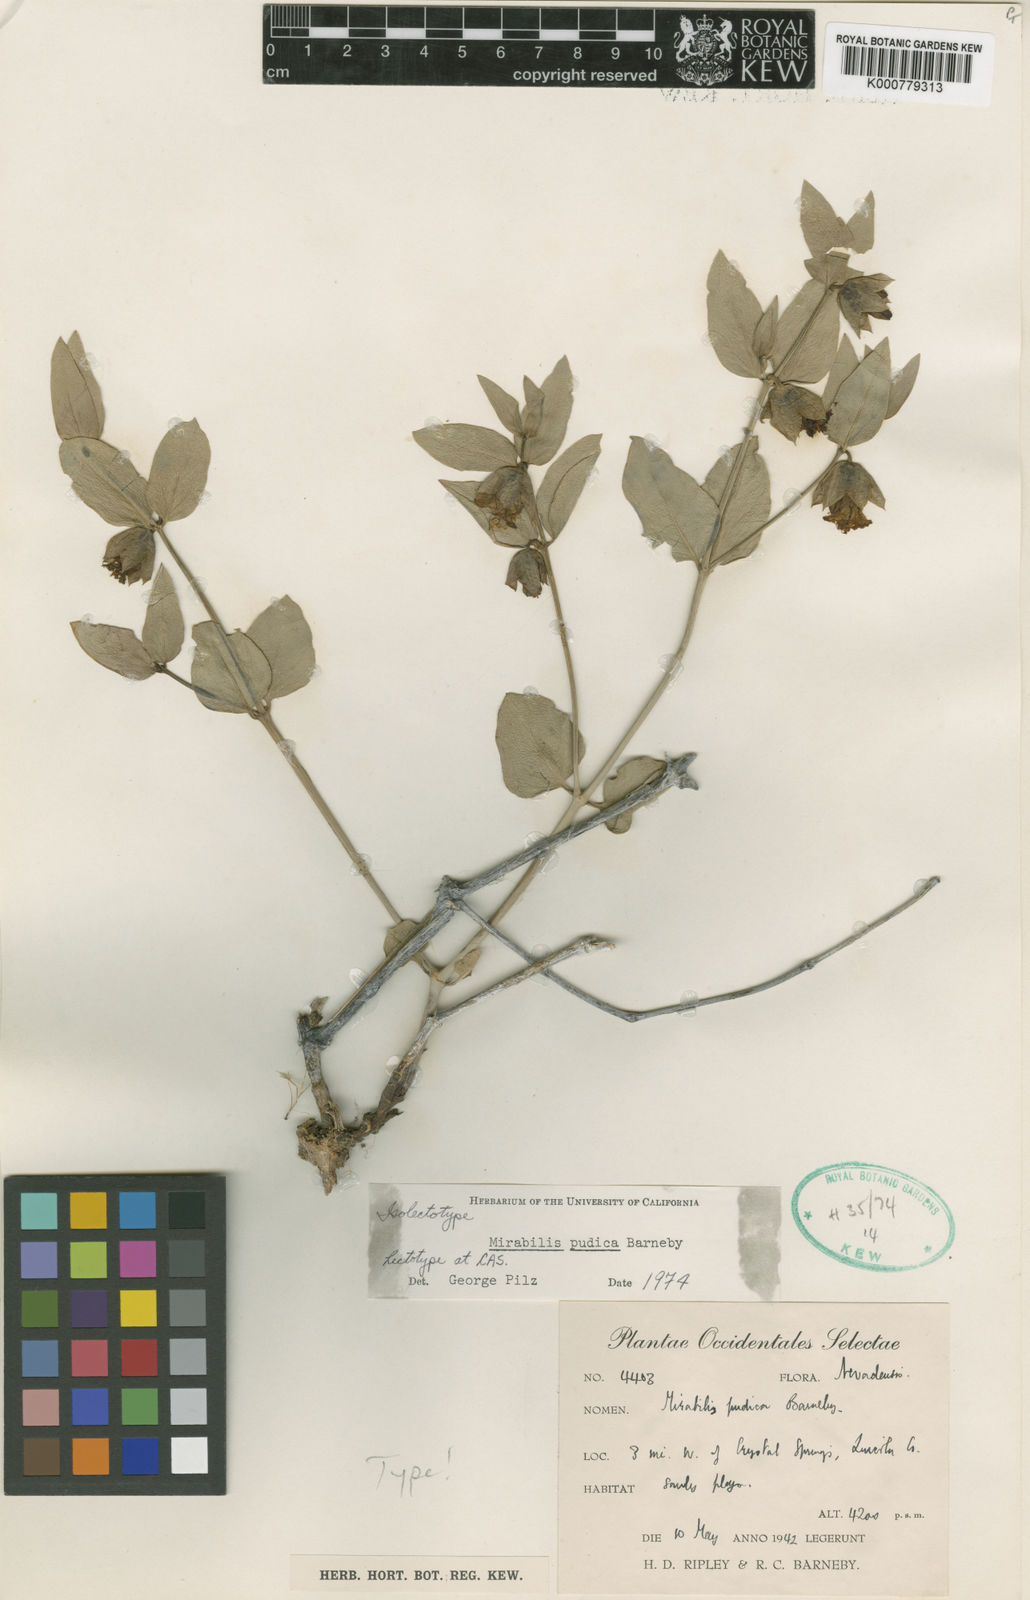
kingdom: Plantae
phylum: Tracheophyta
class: Magnoliopsida
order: Caryophyllales
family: Nyctaginaceae
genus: Mirabilis
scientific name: Mirabilis pudica
